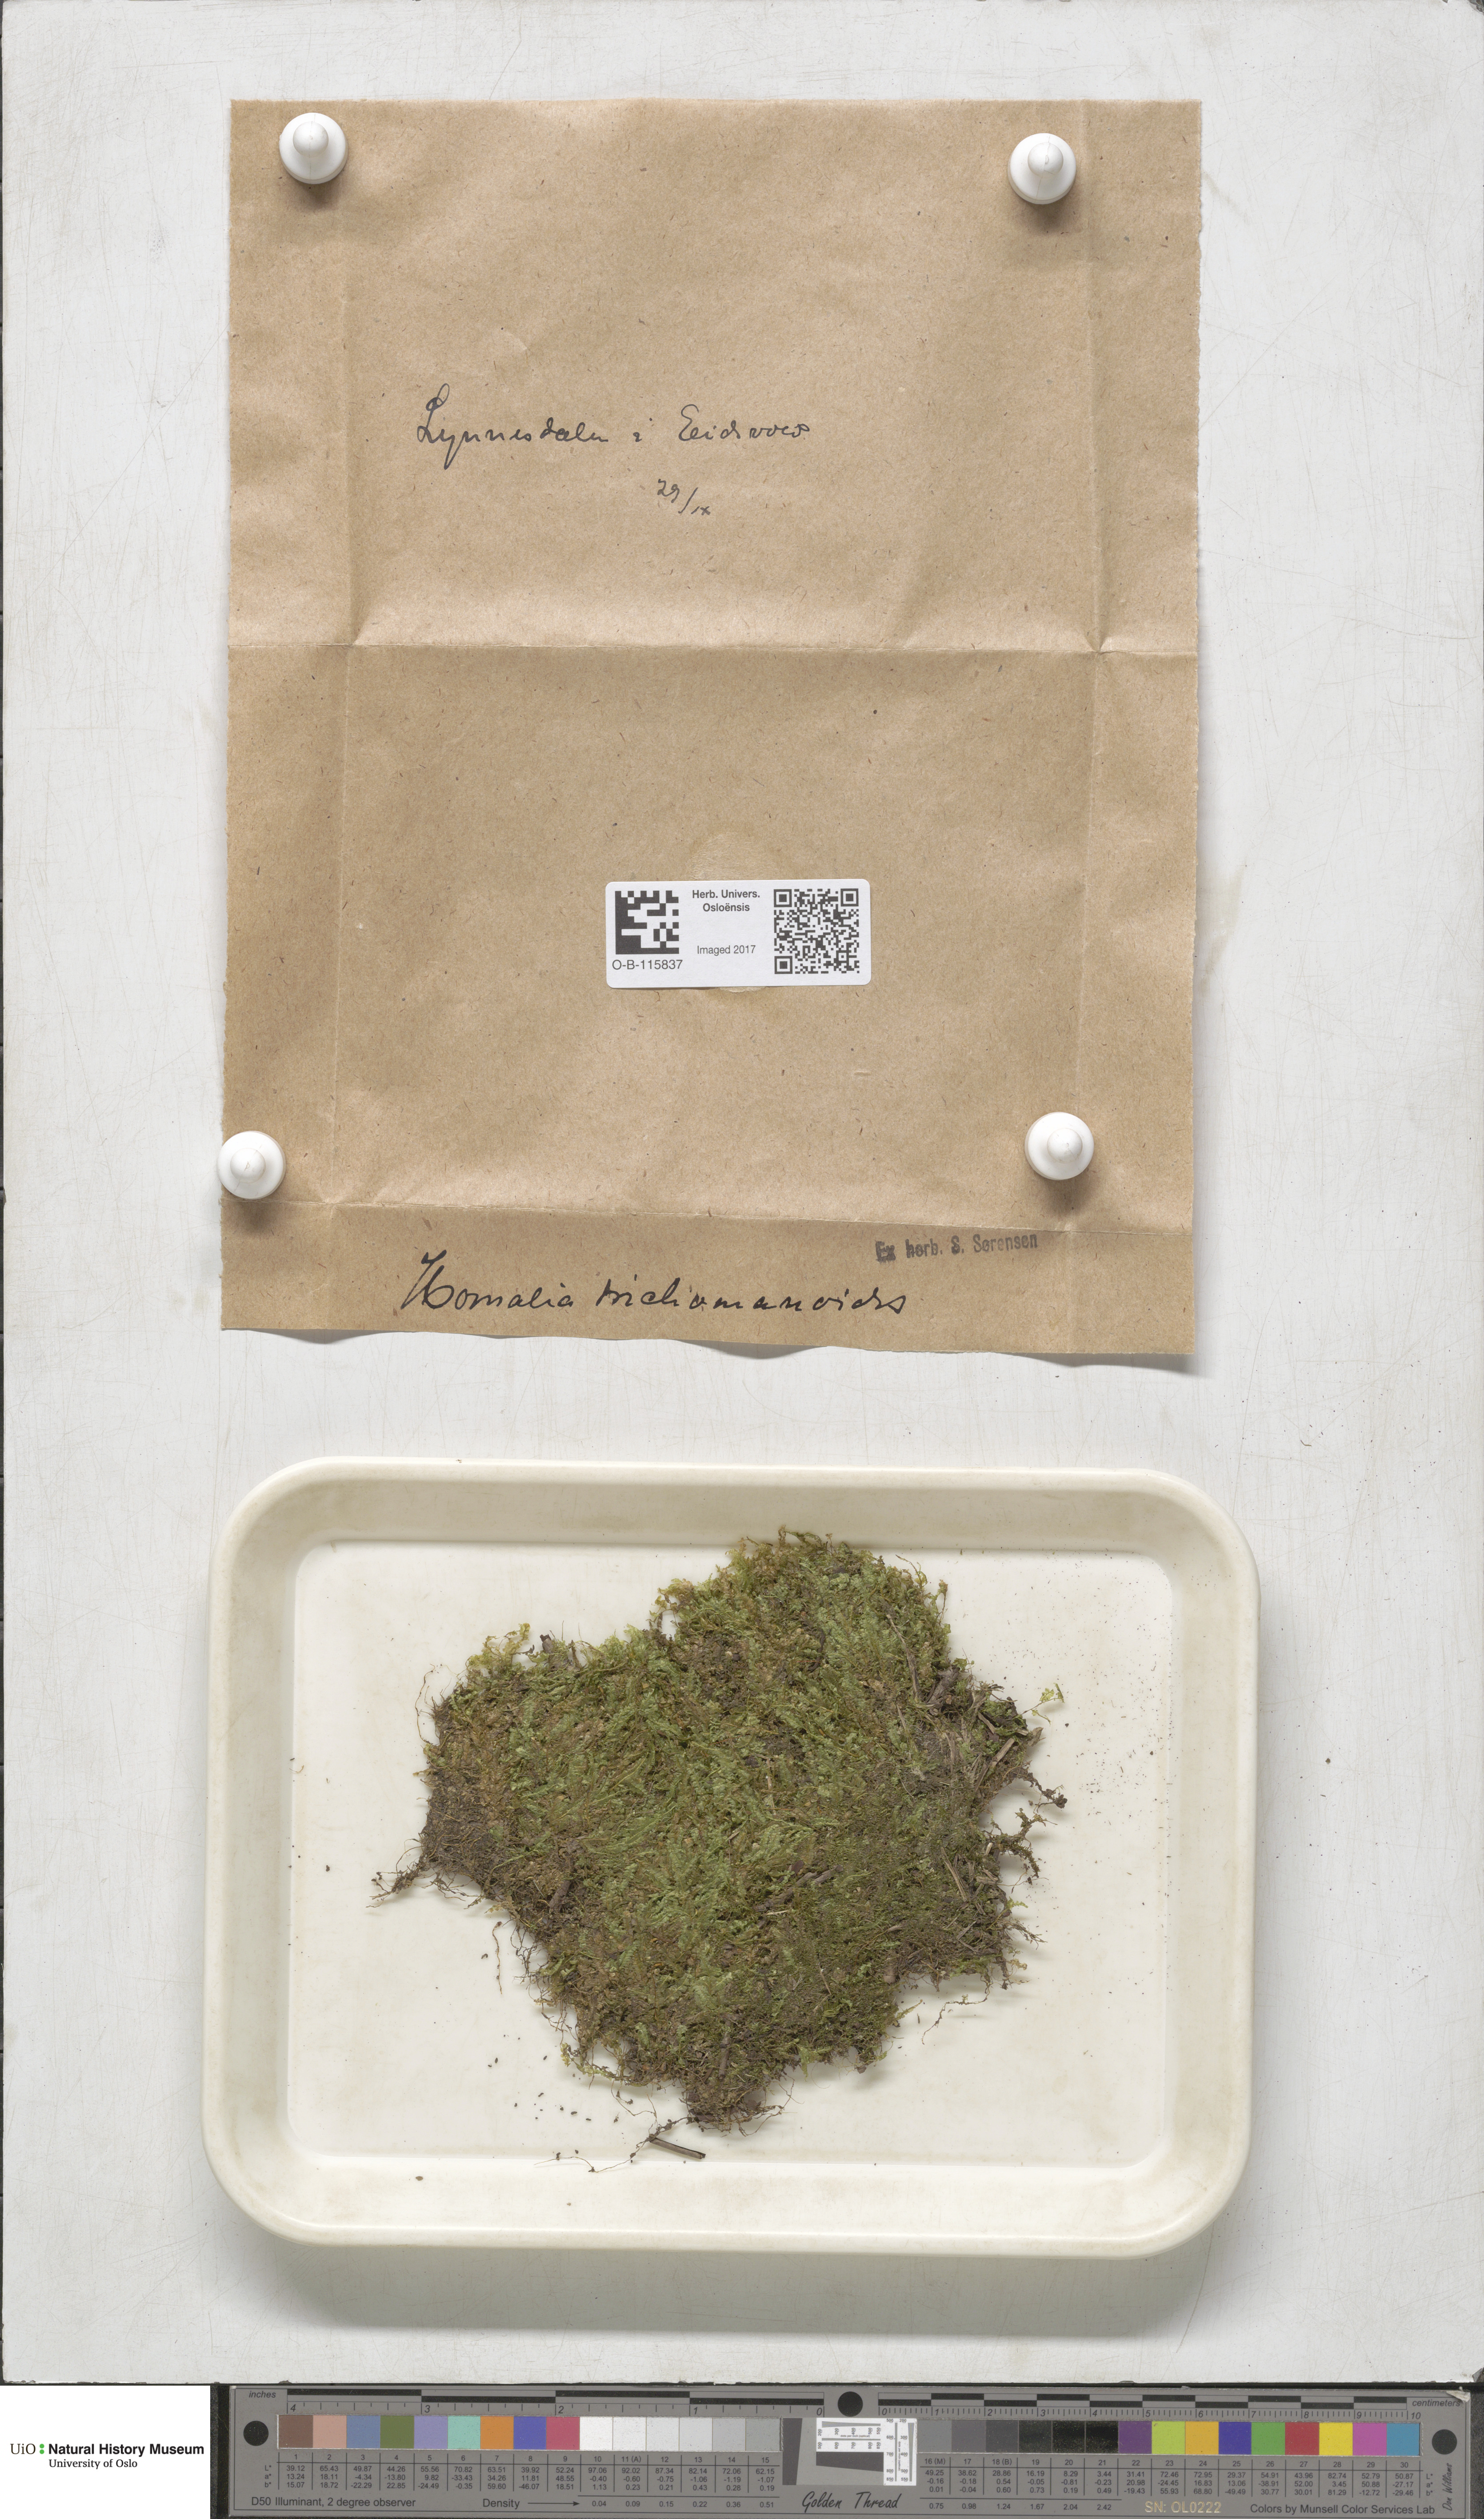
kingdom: Plantae
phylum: Bryophyta
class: Bryopsida
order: Hypnales
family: Neckeraceae
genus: Homalia
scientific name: Homalia trichomanoides
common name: Lime homalia moss
